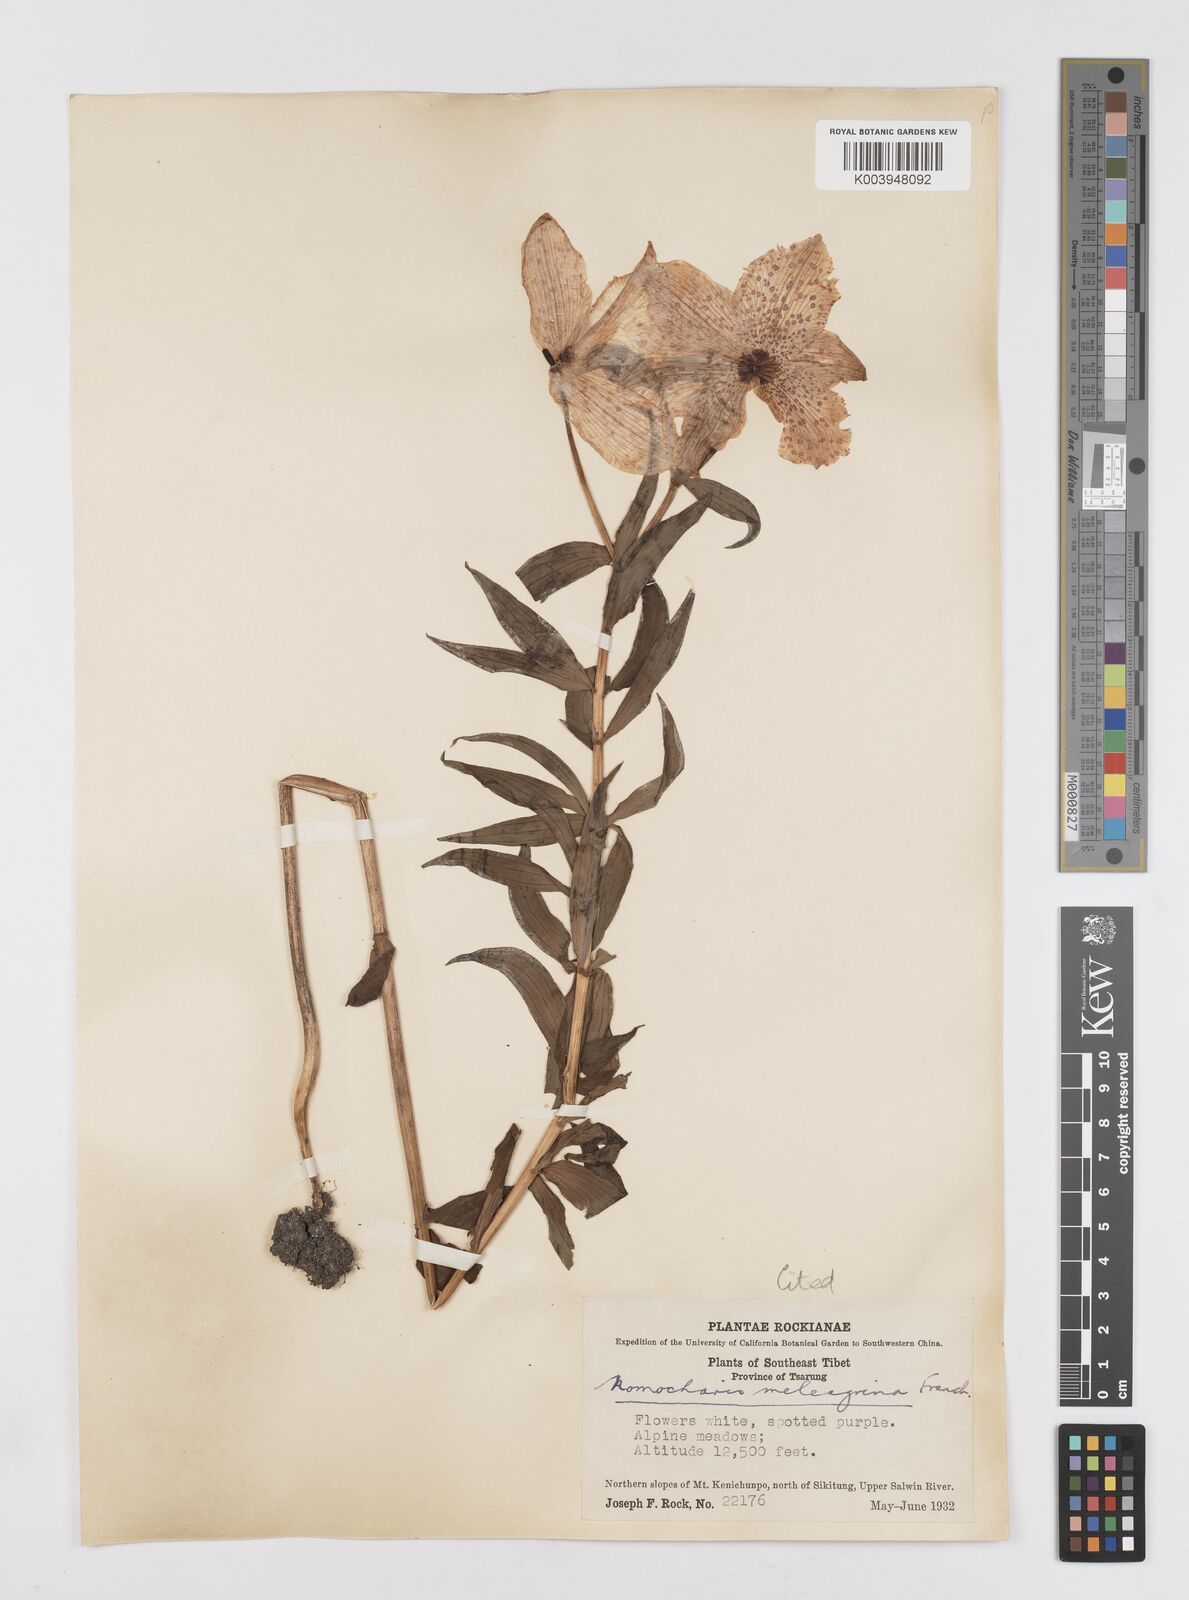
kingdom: Plantae
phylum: Tracheophyta
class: Liliopsida
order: Liliales
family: Liliaceae
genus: Lilium
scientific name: Lilium meleagrina
